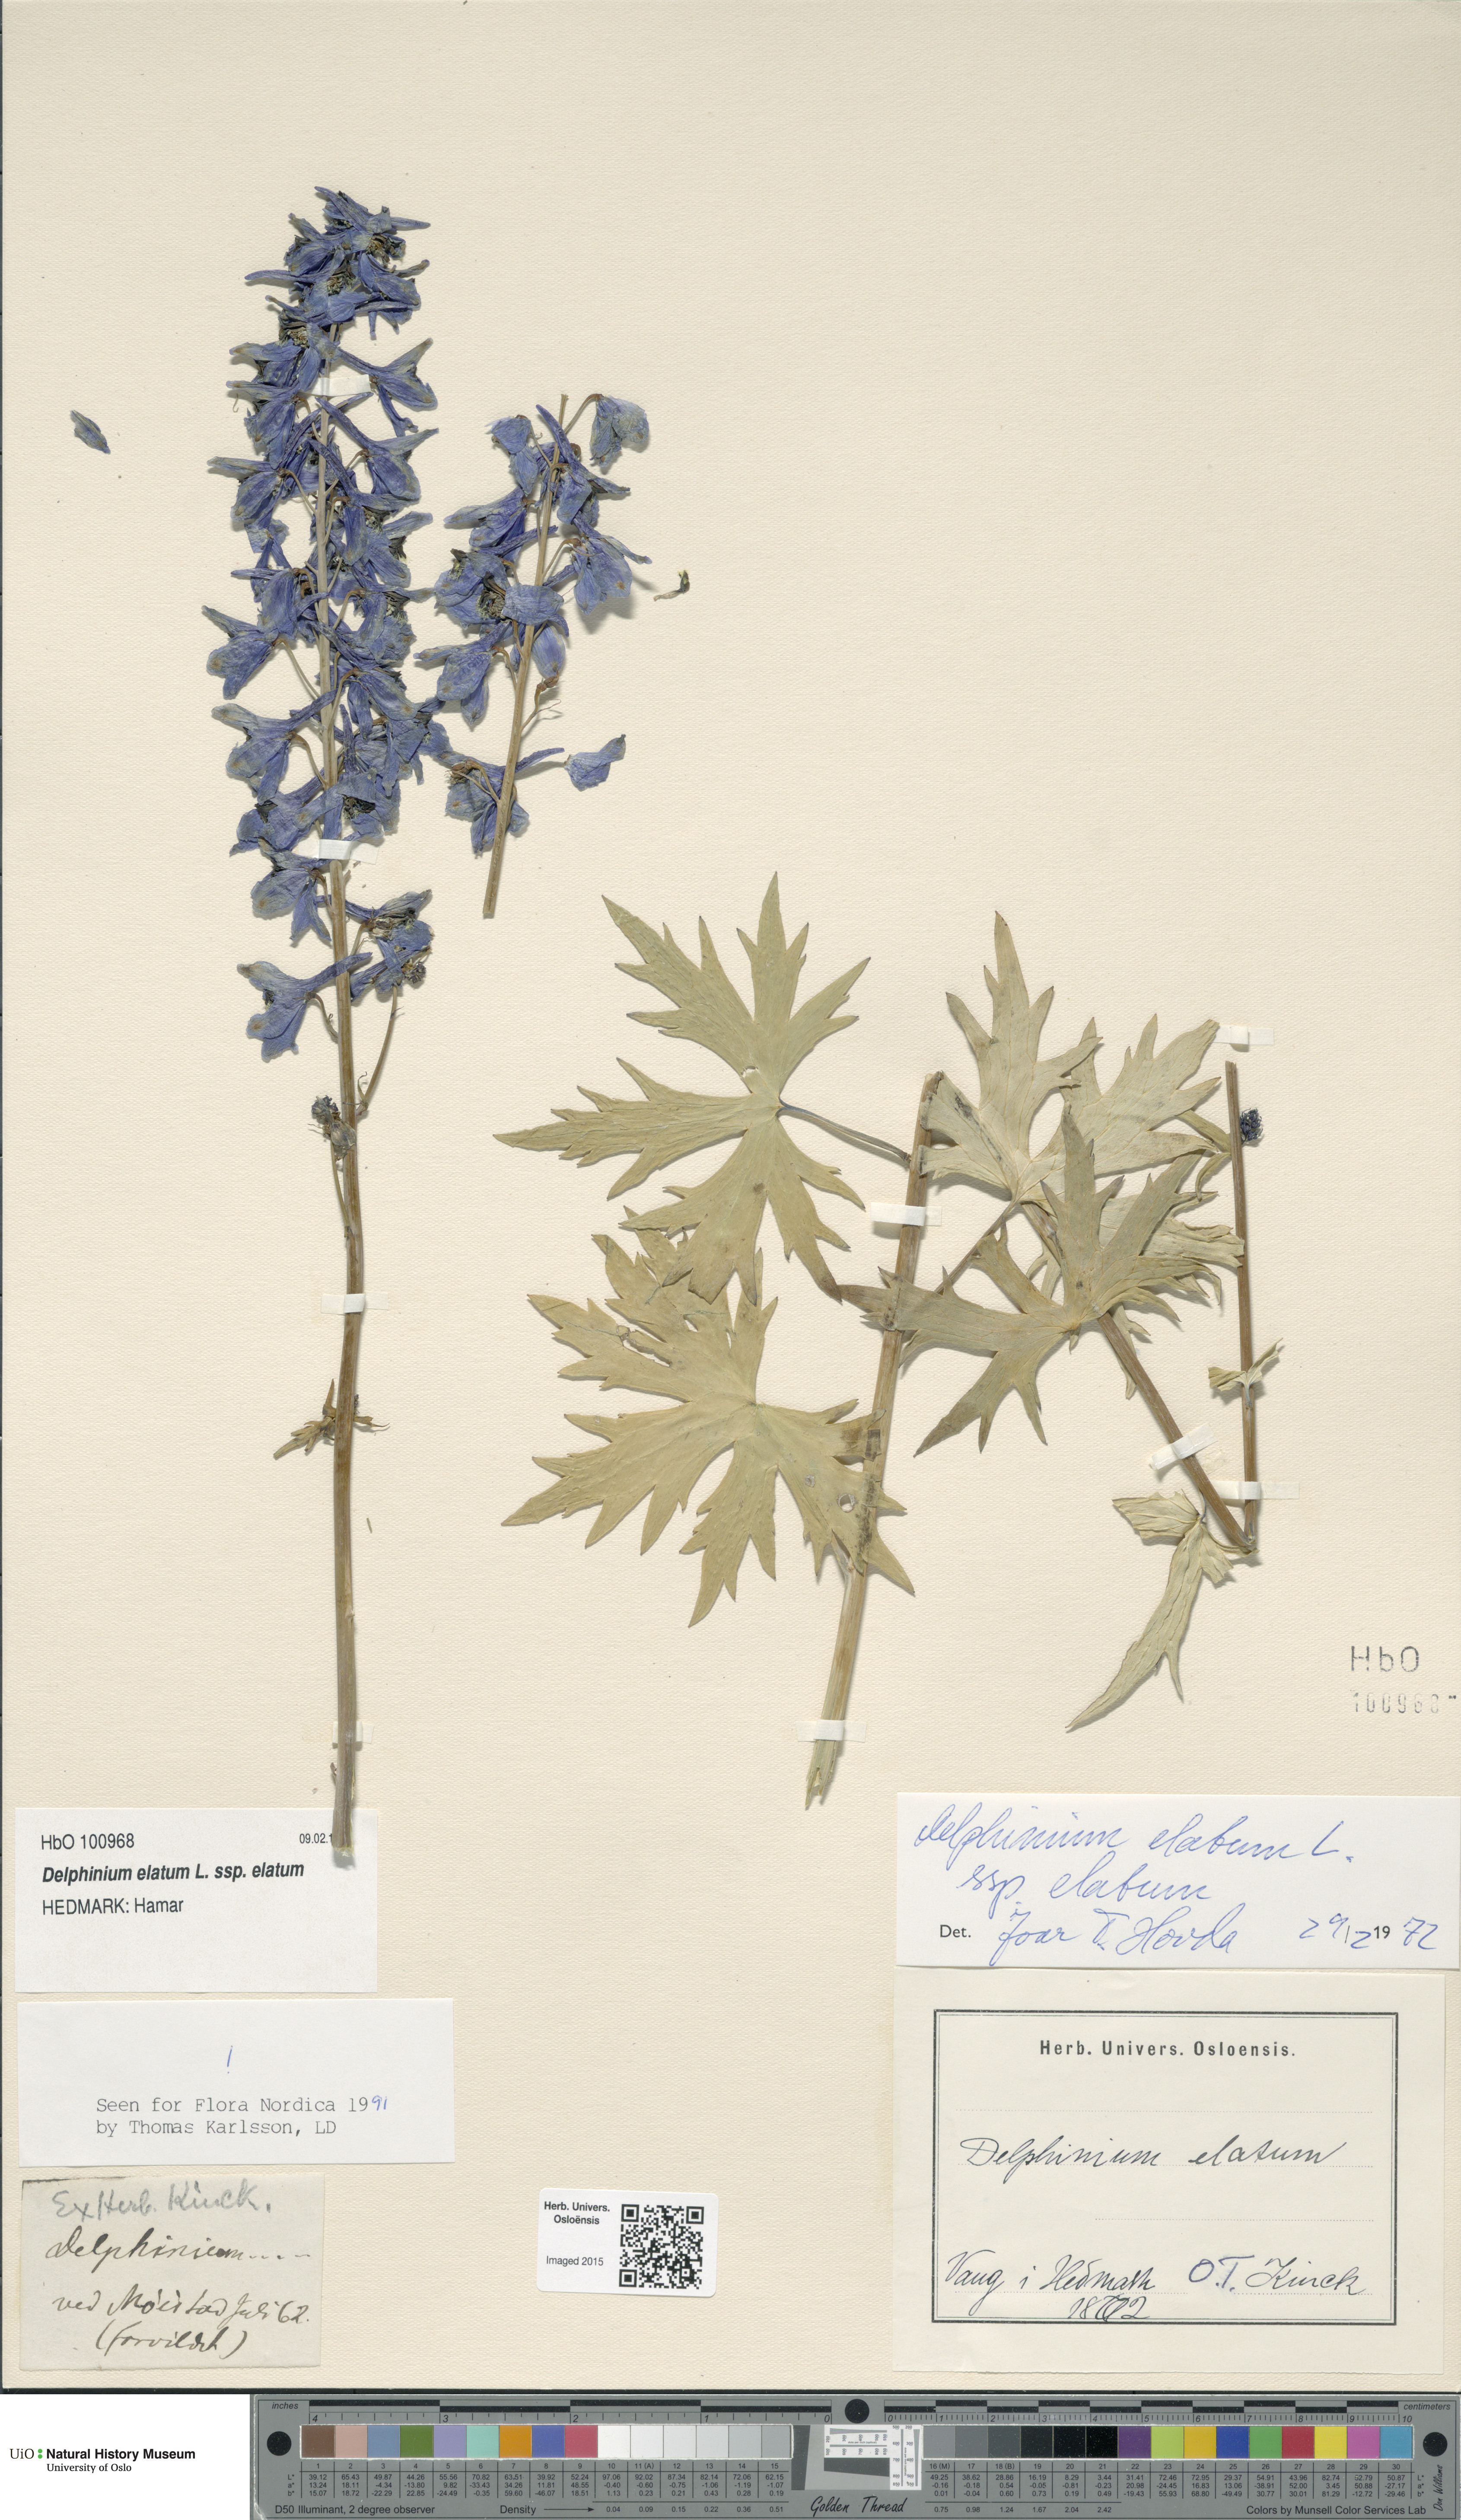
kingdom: Plantae
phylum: Tracheophyta
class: Magnoliopsida
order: Ranunculales
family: Ranunculaceae
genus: Delphinium
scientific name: Delphinium elatum
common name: Candle larkspur
